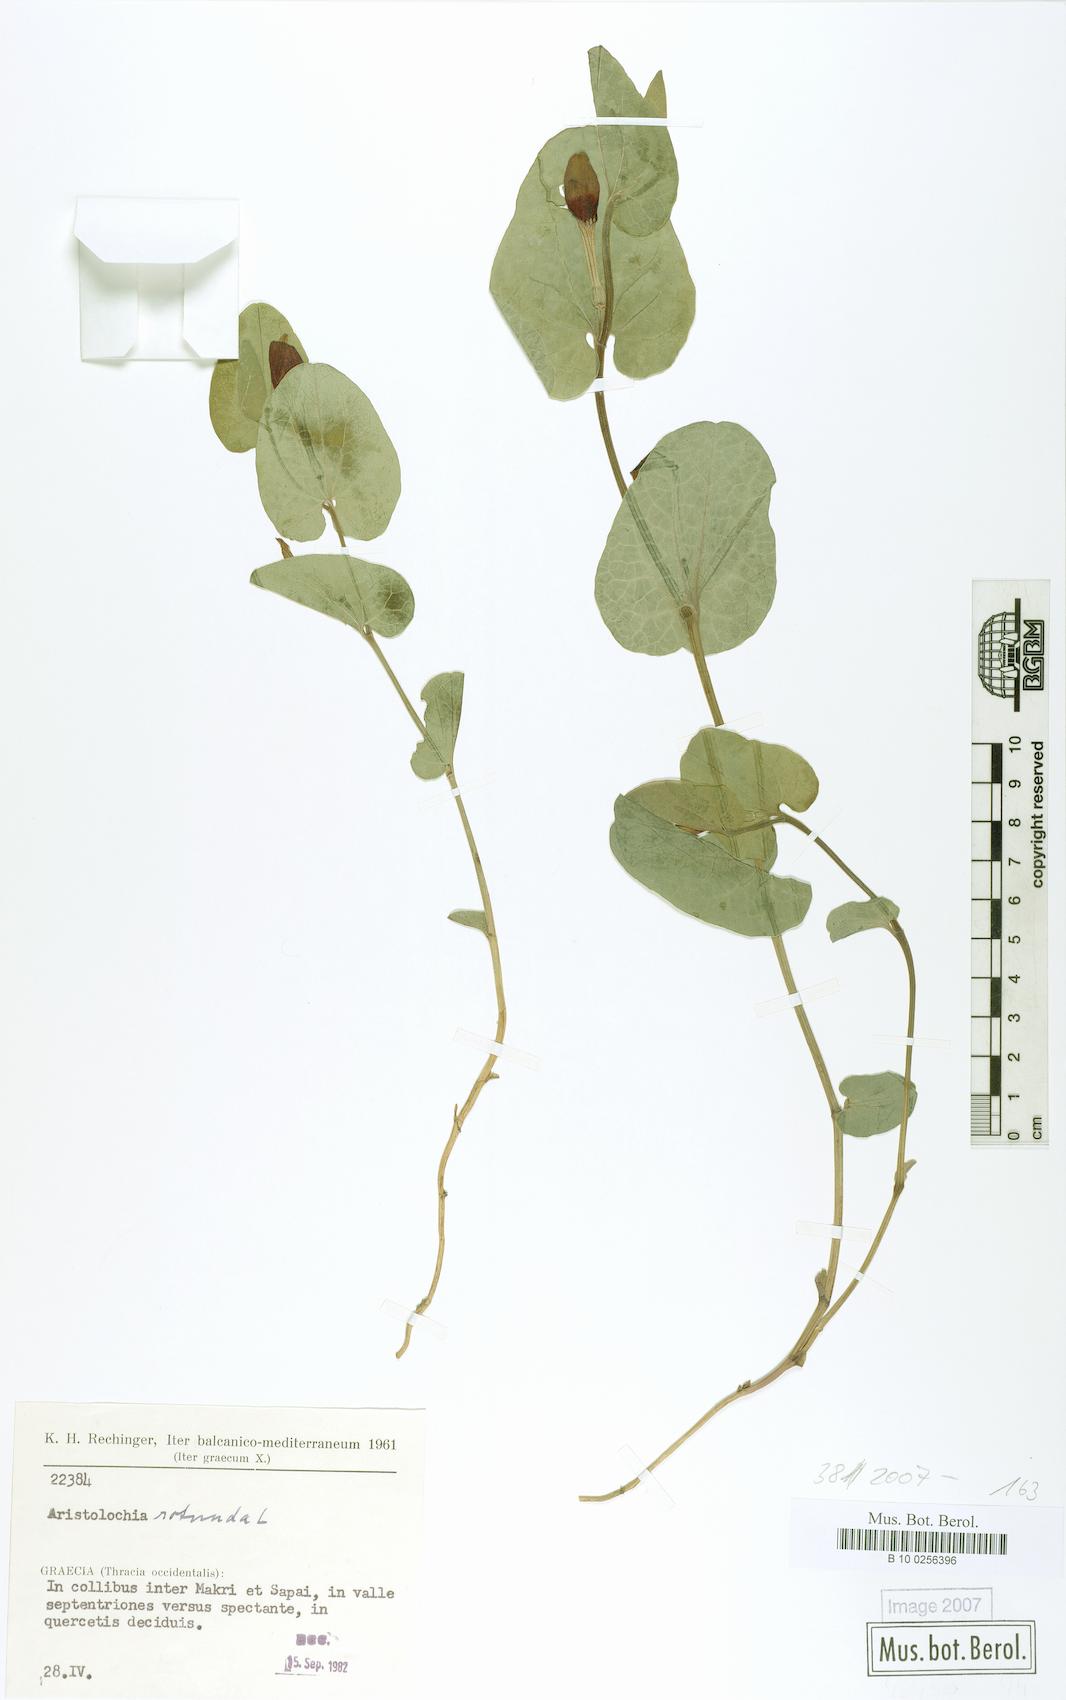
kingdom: Plantae
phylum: Tracheophyta
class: Magnoliopsida
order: Piperales
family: Aristolochiaceae
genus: Aristolochia
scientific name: Aristolochia rotunda
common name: Smearwort
